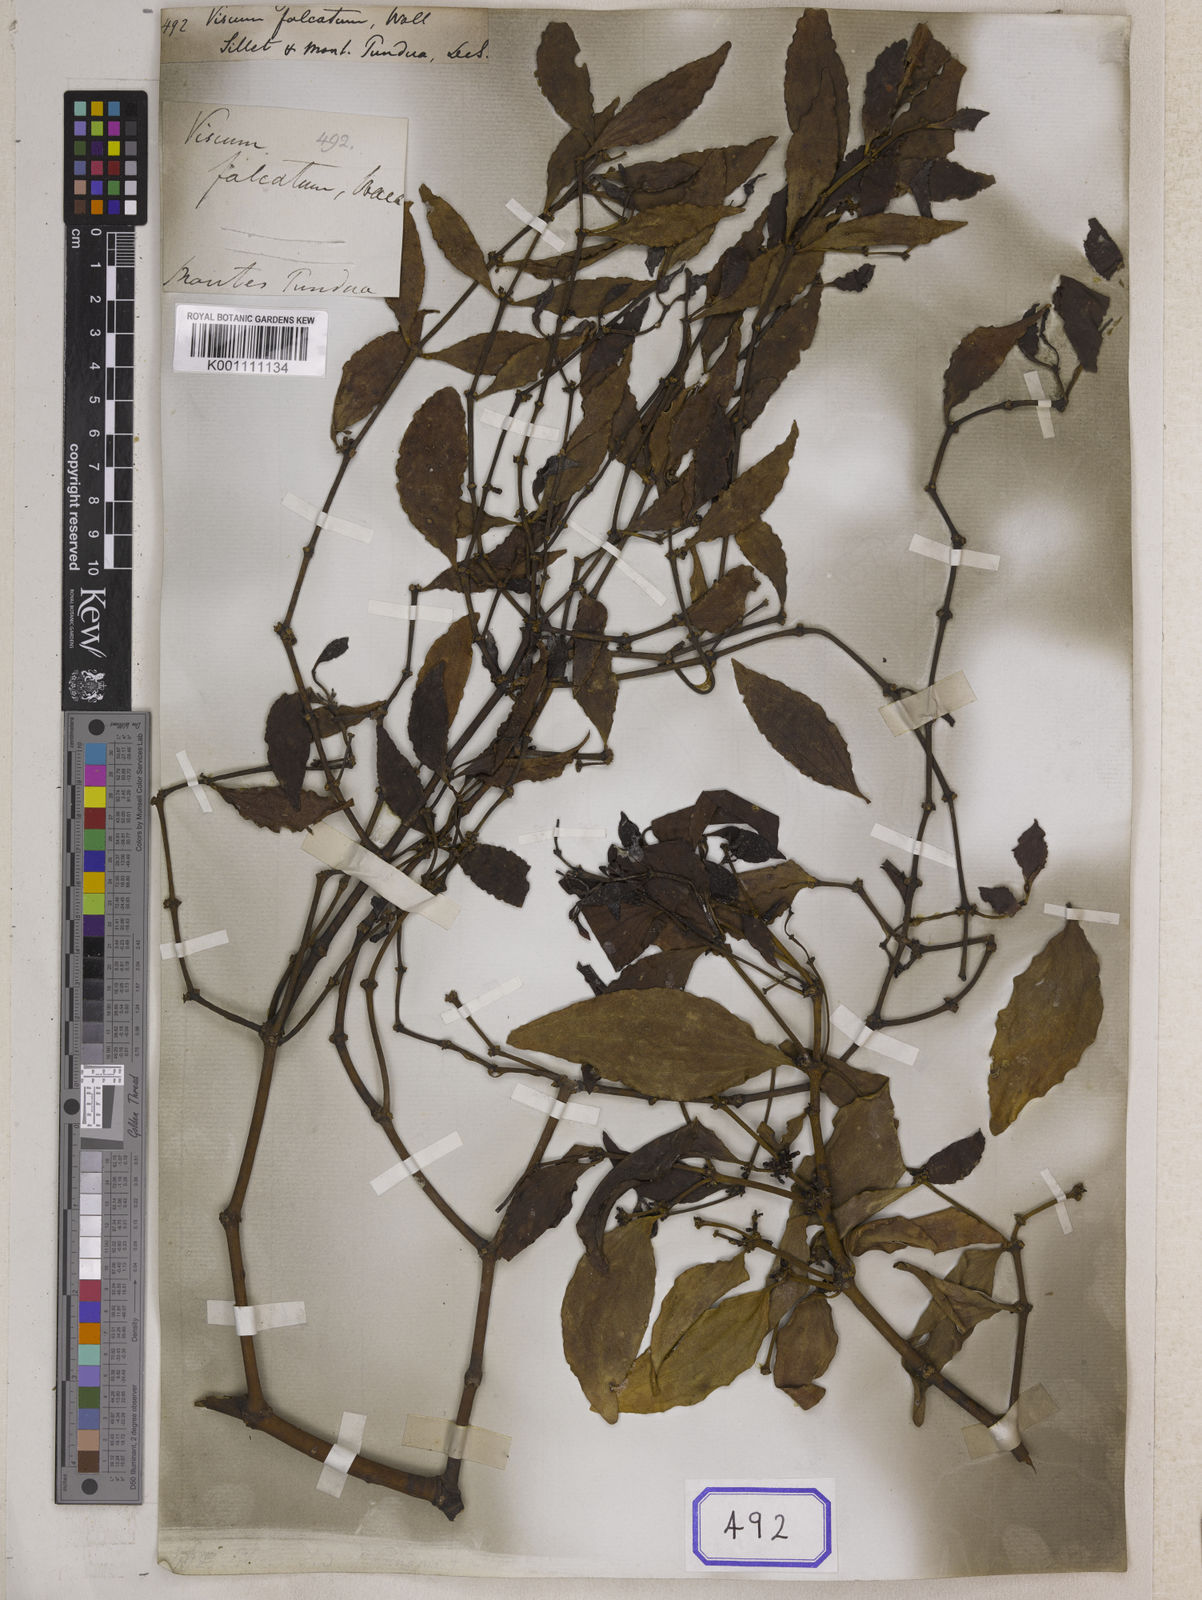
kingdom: Plantae
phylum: Tracheophyta
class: Magnoliopsida
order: Santalales
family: Viscaceae
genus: Viscum
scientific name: Viscum
